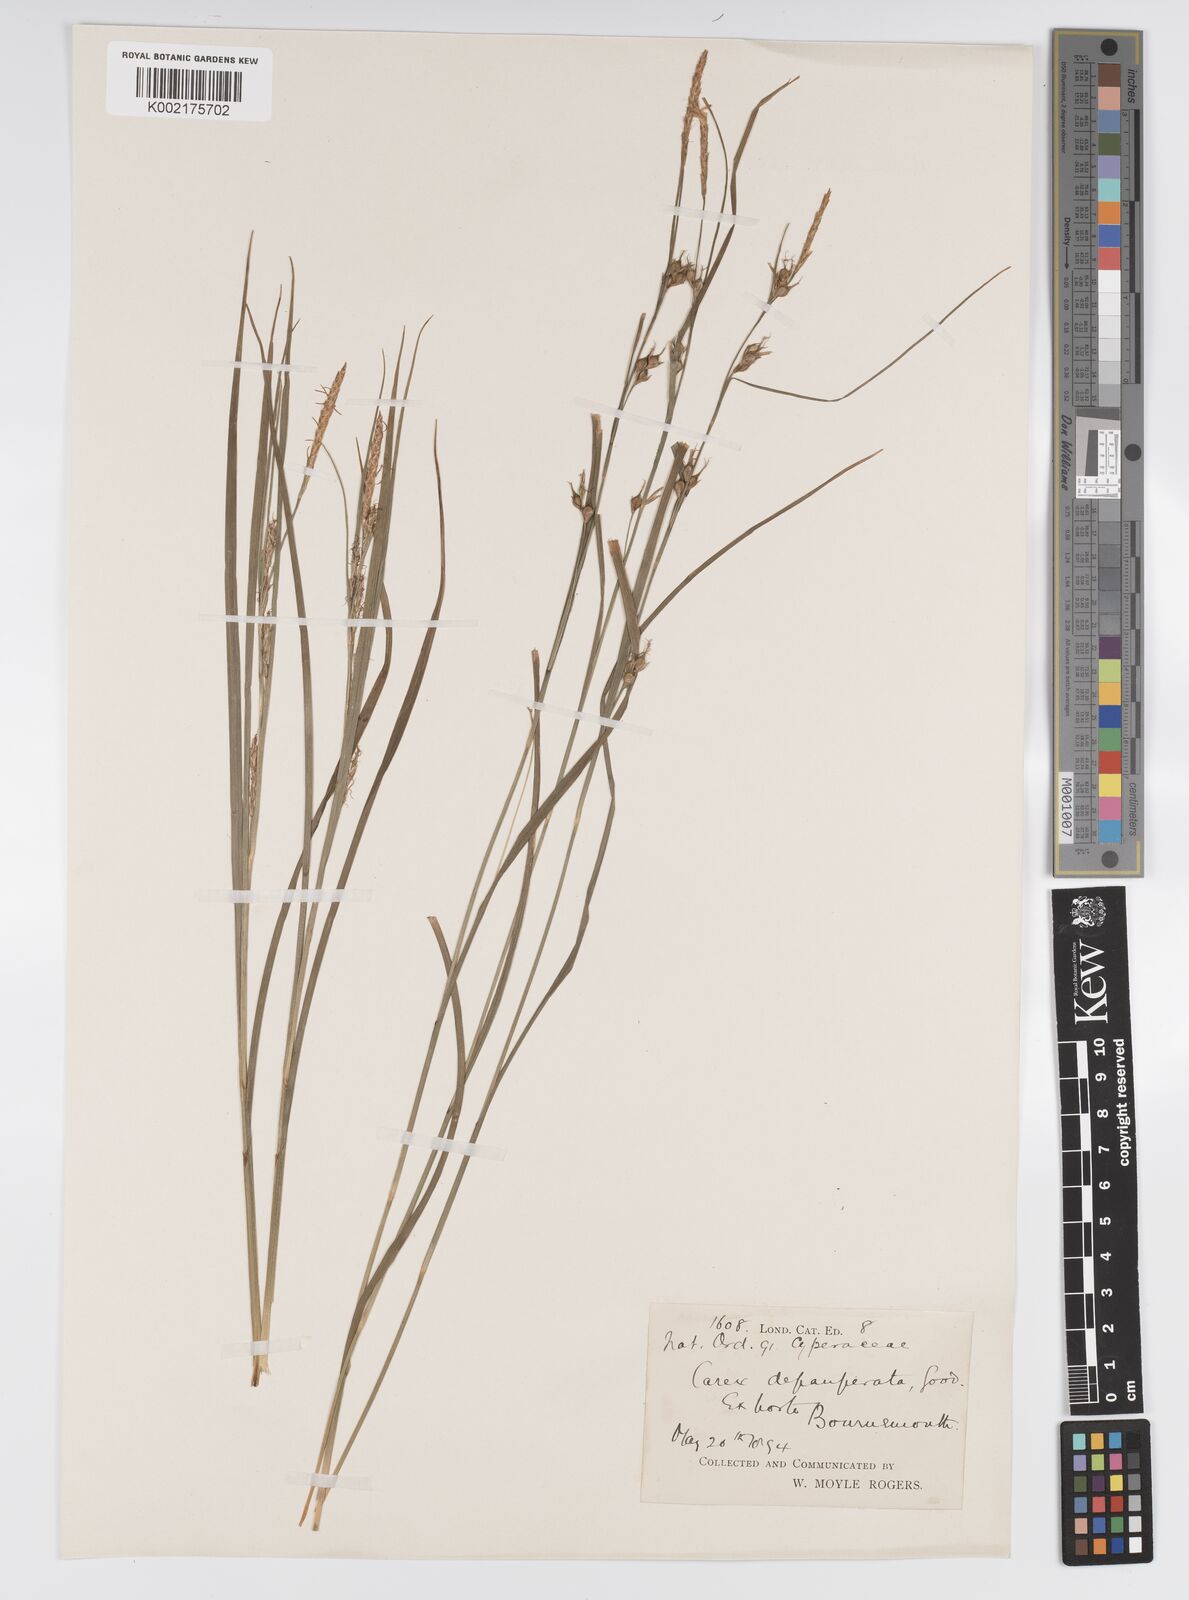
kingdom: Plantae
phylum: Tracheophyta
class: Liliopsida
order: Poales
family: Cyperaceae
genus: Carex
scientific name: Carex depauperata
